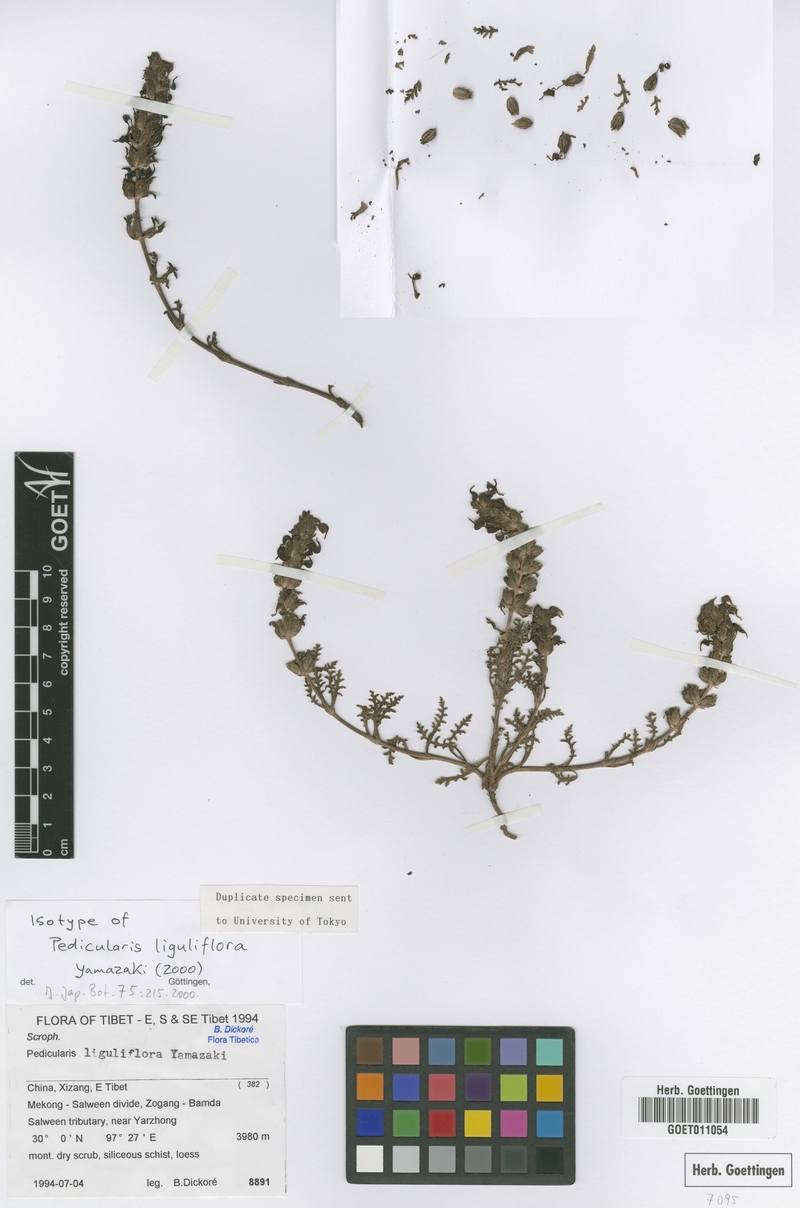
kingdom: Plantae
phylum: Tracheophyta
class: Magnoliopsida
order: Lamiales
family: Orobanchaceae
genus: Pedicularis
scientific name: Pedicularis liguliflora
